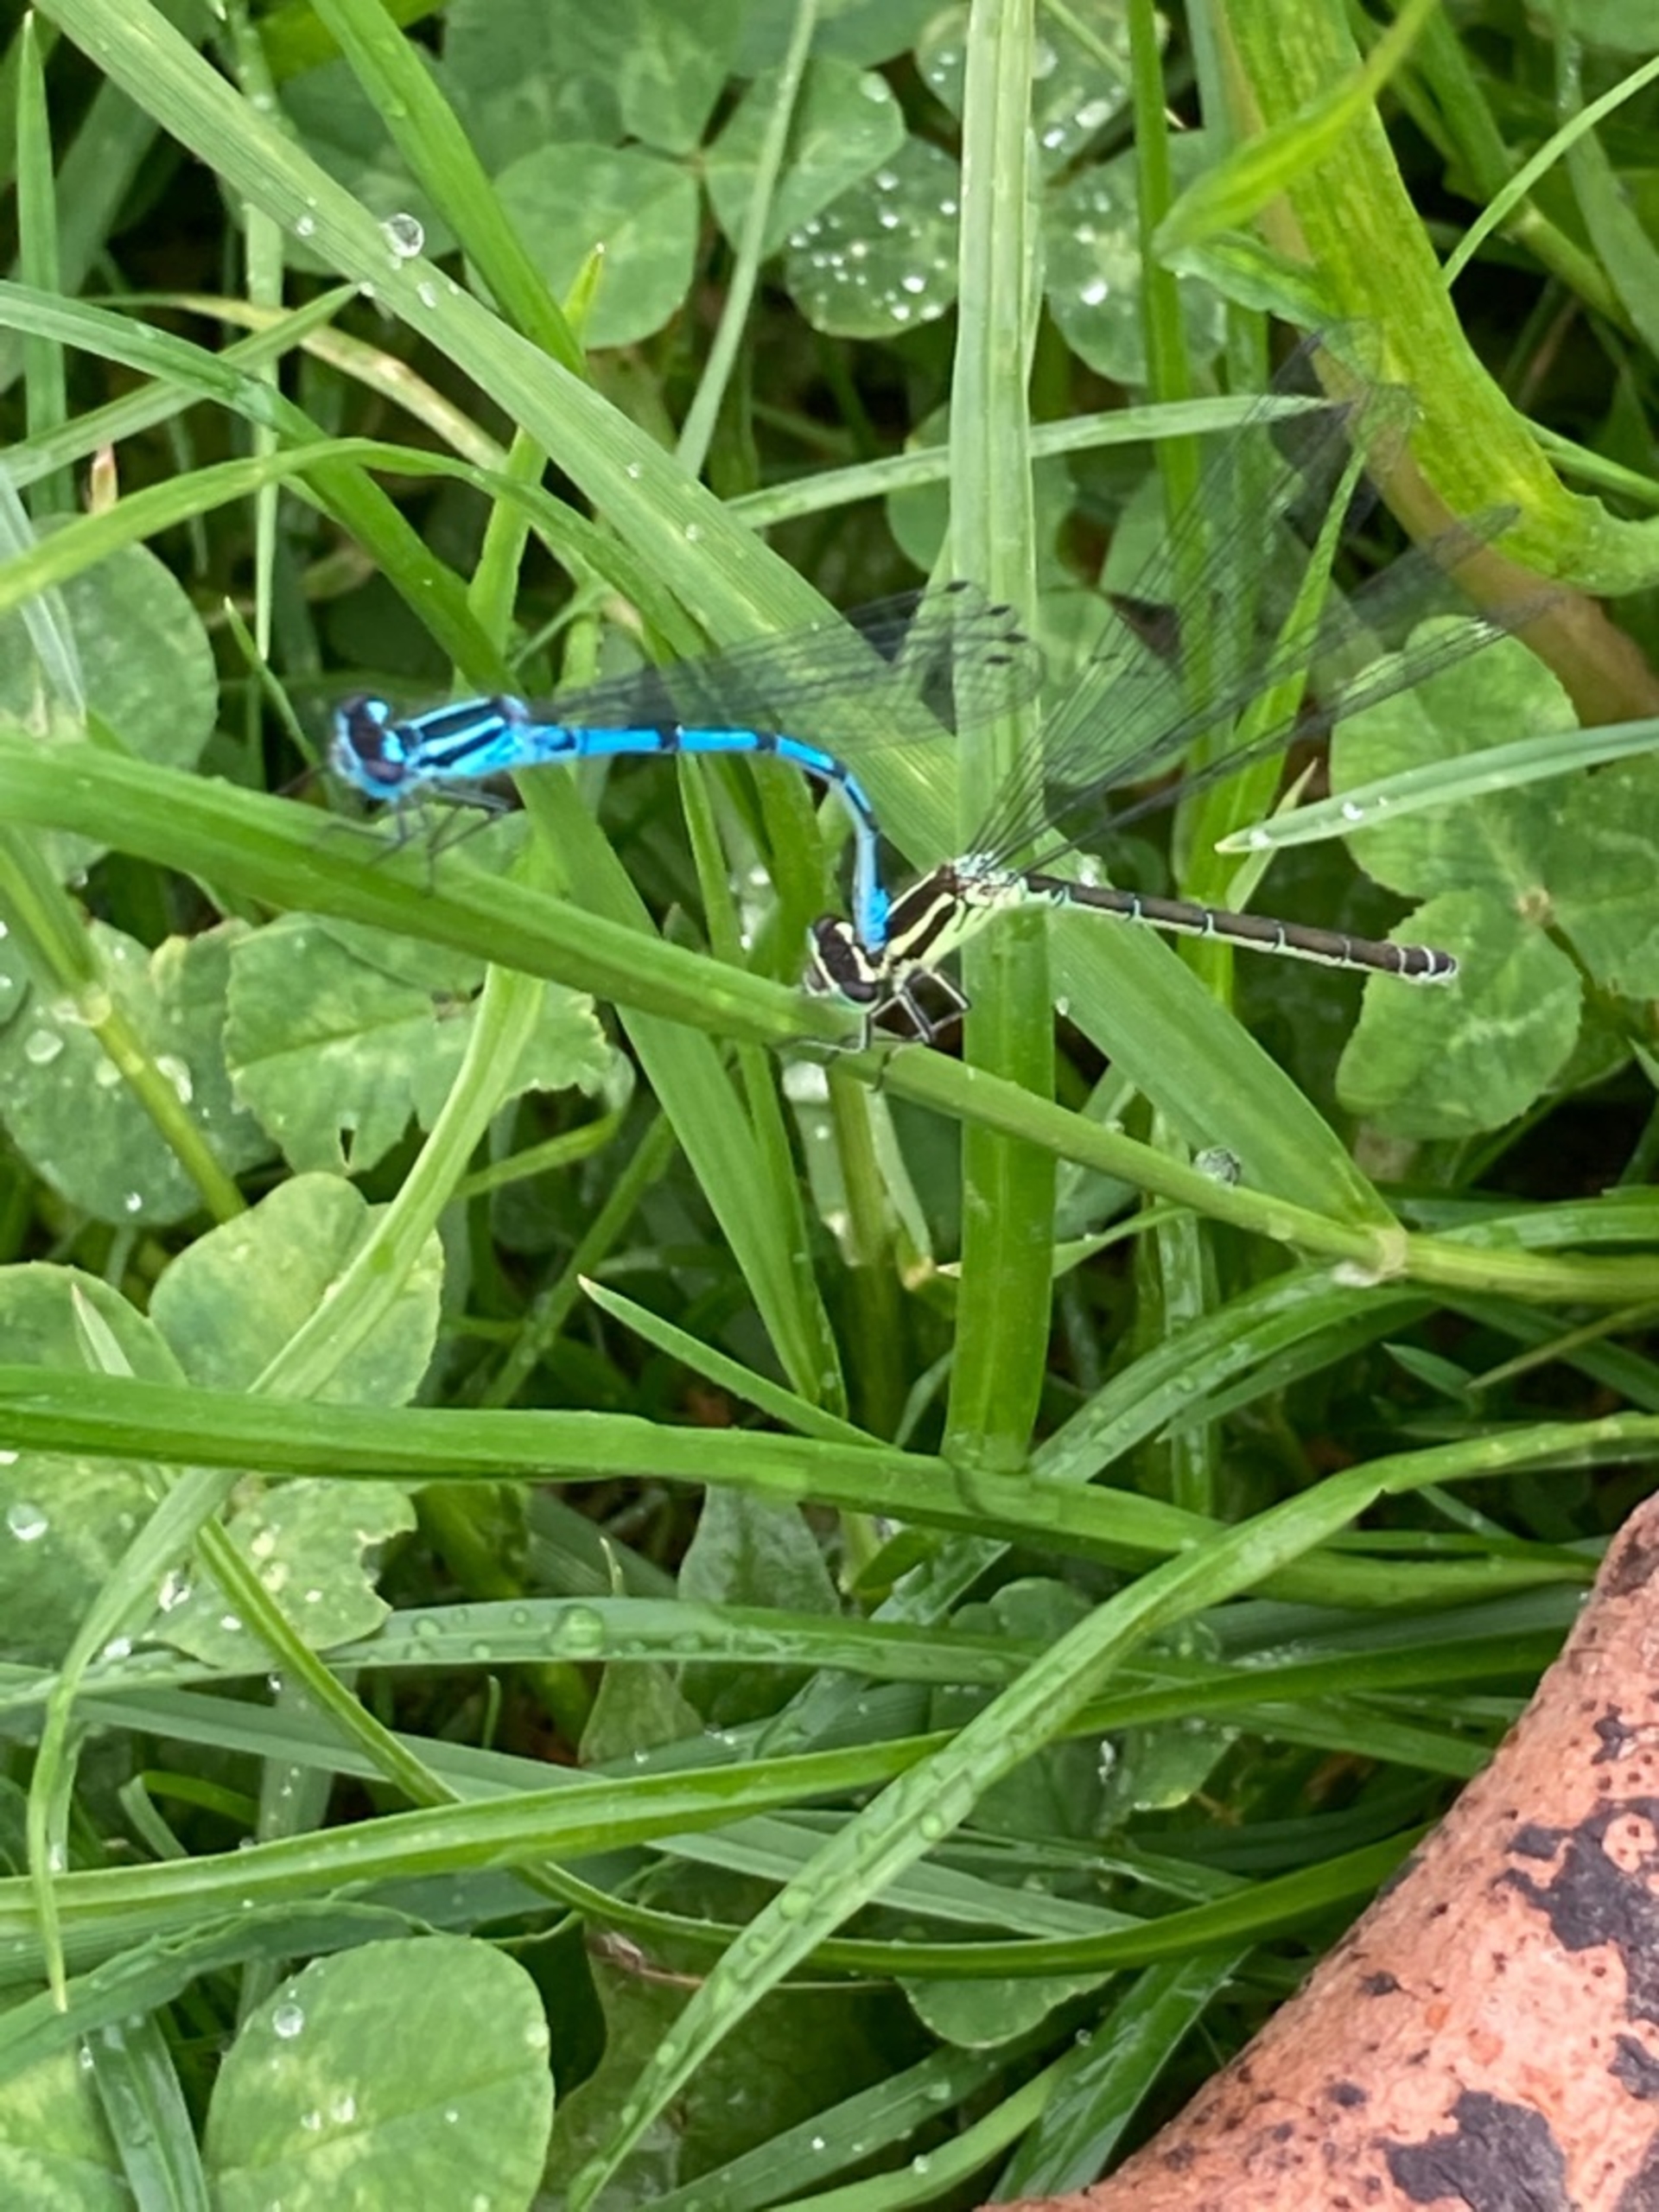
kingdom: Animalia
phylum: Arthropoda
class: Insecta
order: Odonata
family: Coenagrionidae
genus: Coenagrion
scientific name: Coenagrion puella
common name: Hestesko-vandnymfe
